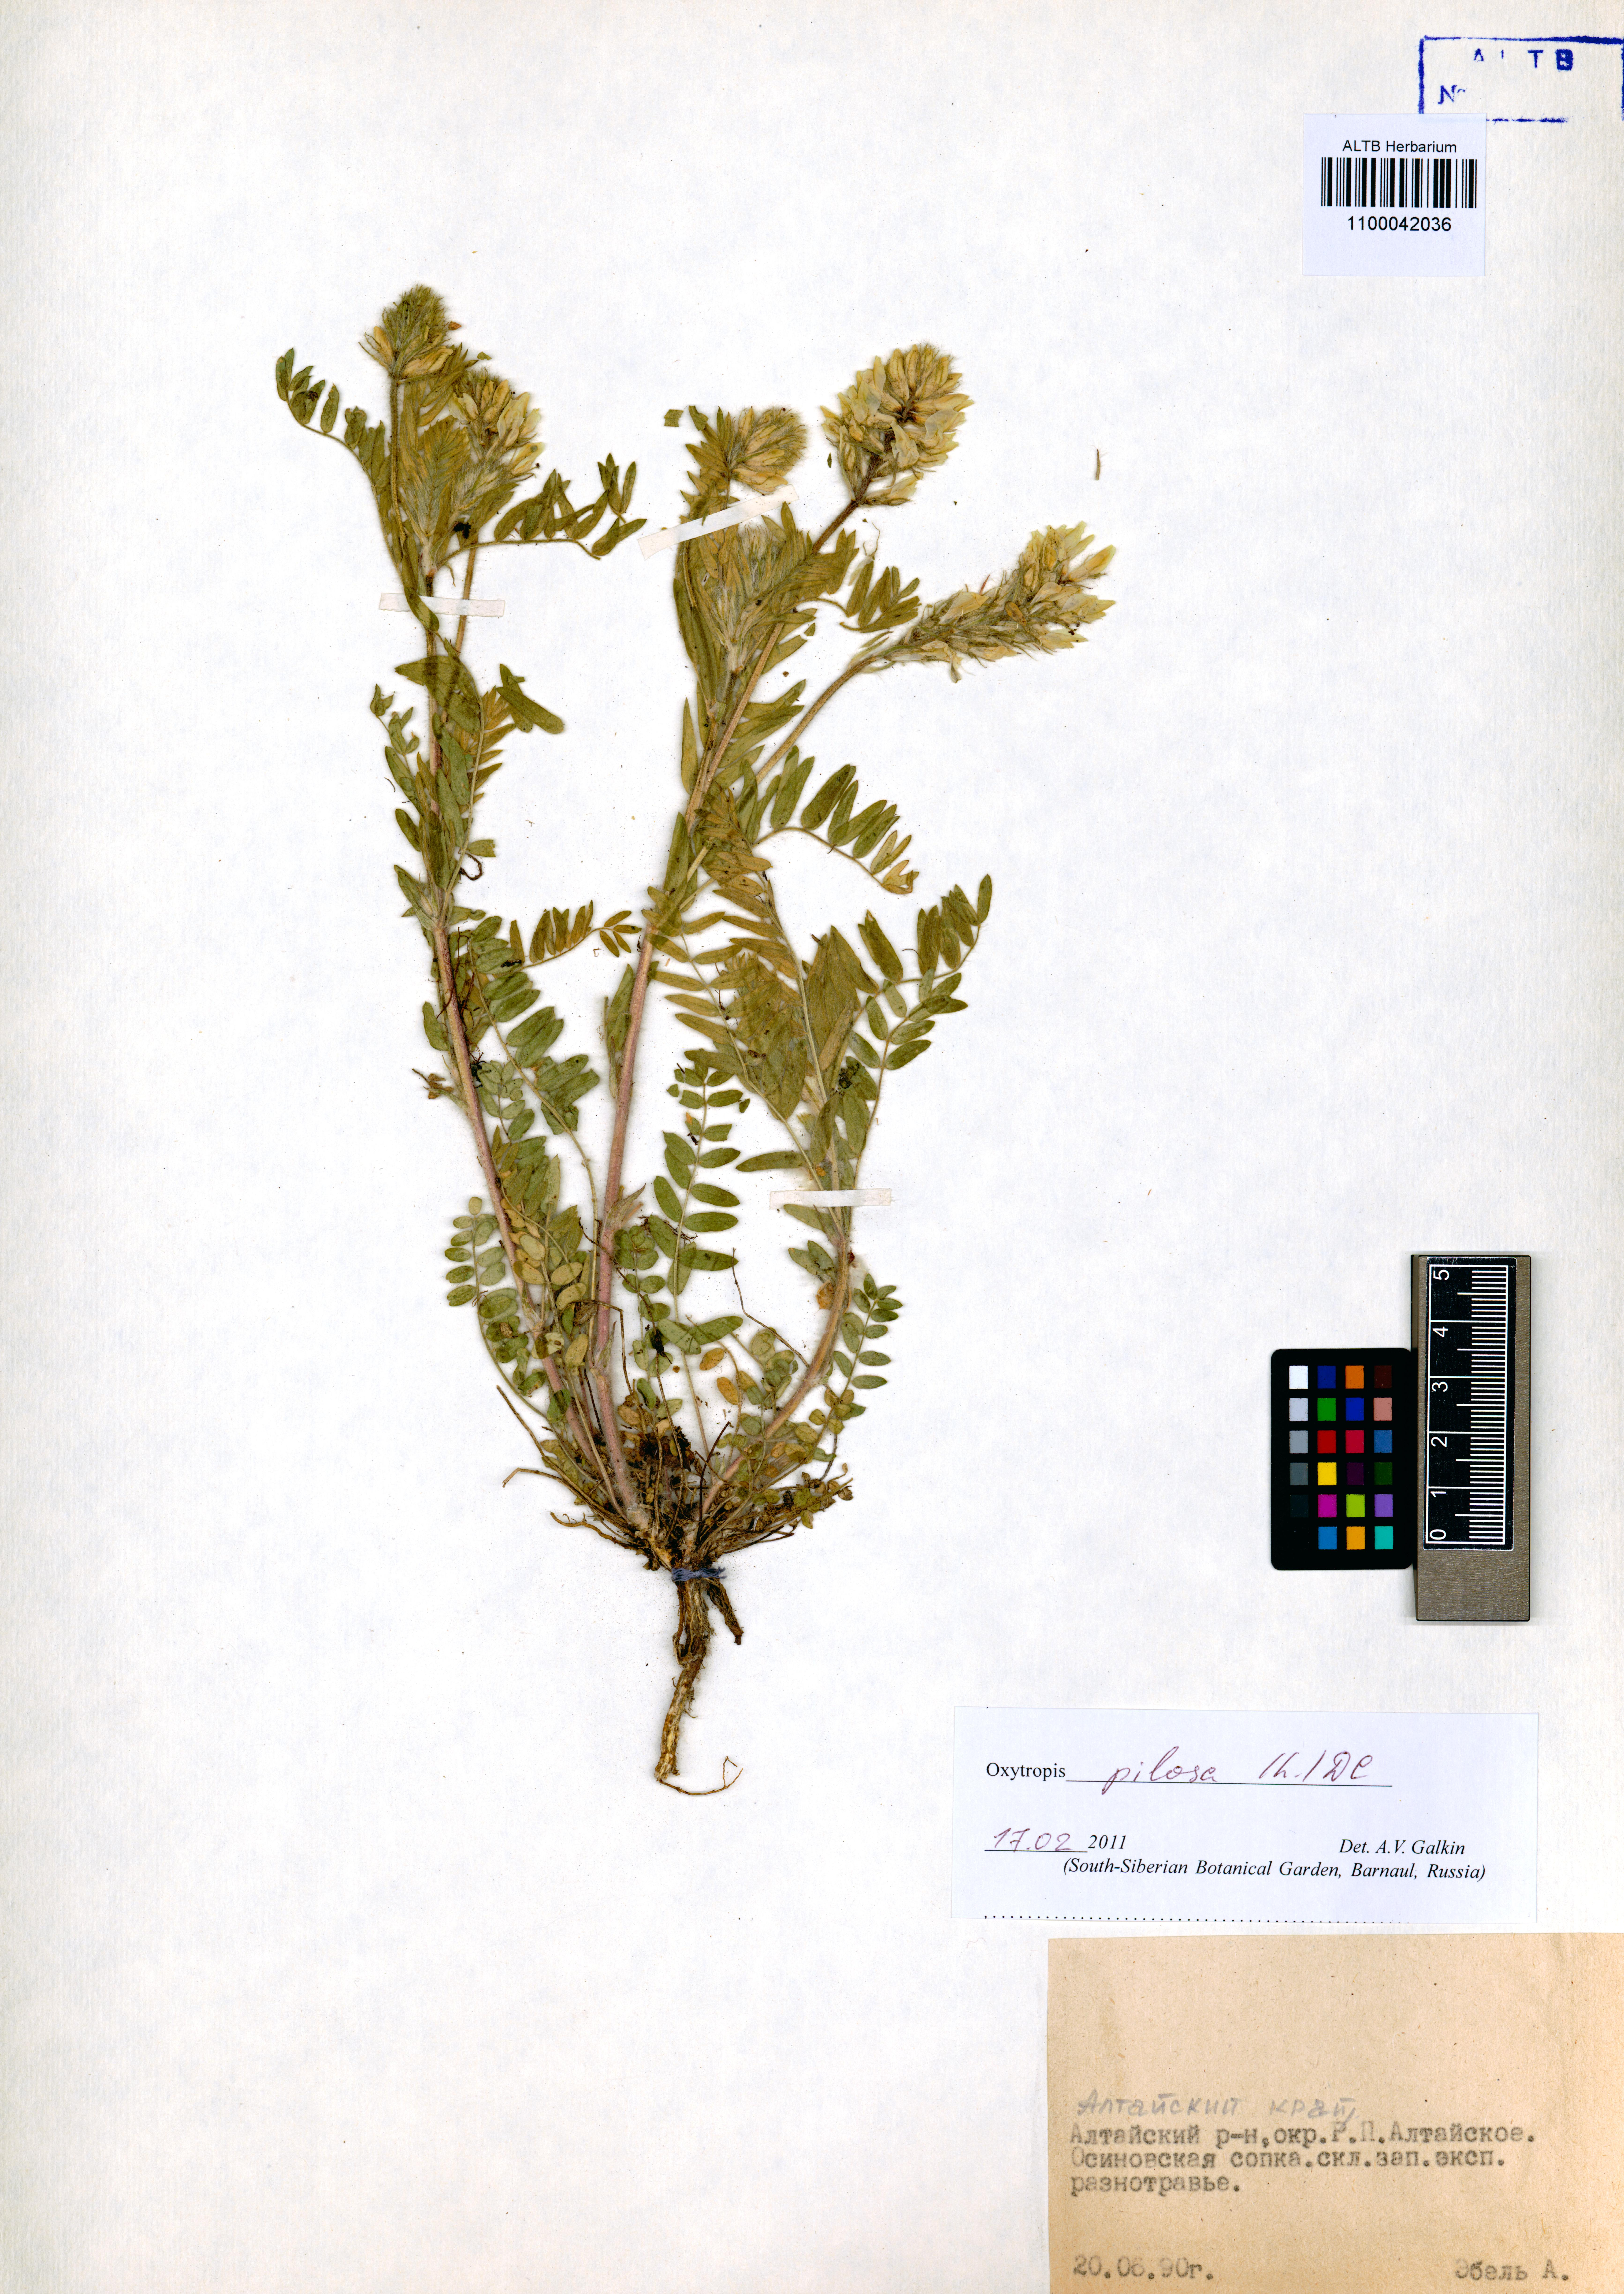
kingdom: Plantae
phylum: Tracheophyta
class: Magnoliopsida
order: Fabales
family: Fabaceae
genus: Oxytropis
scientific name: Oxytropis pilosa
